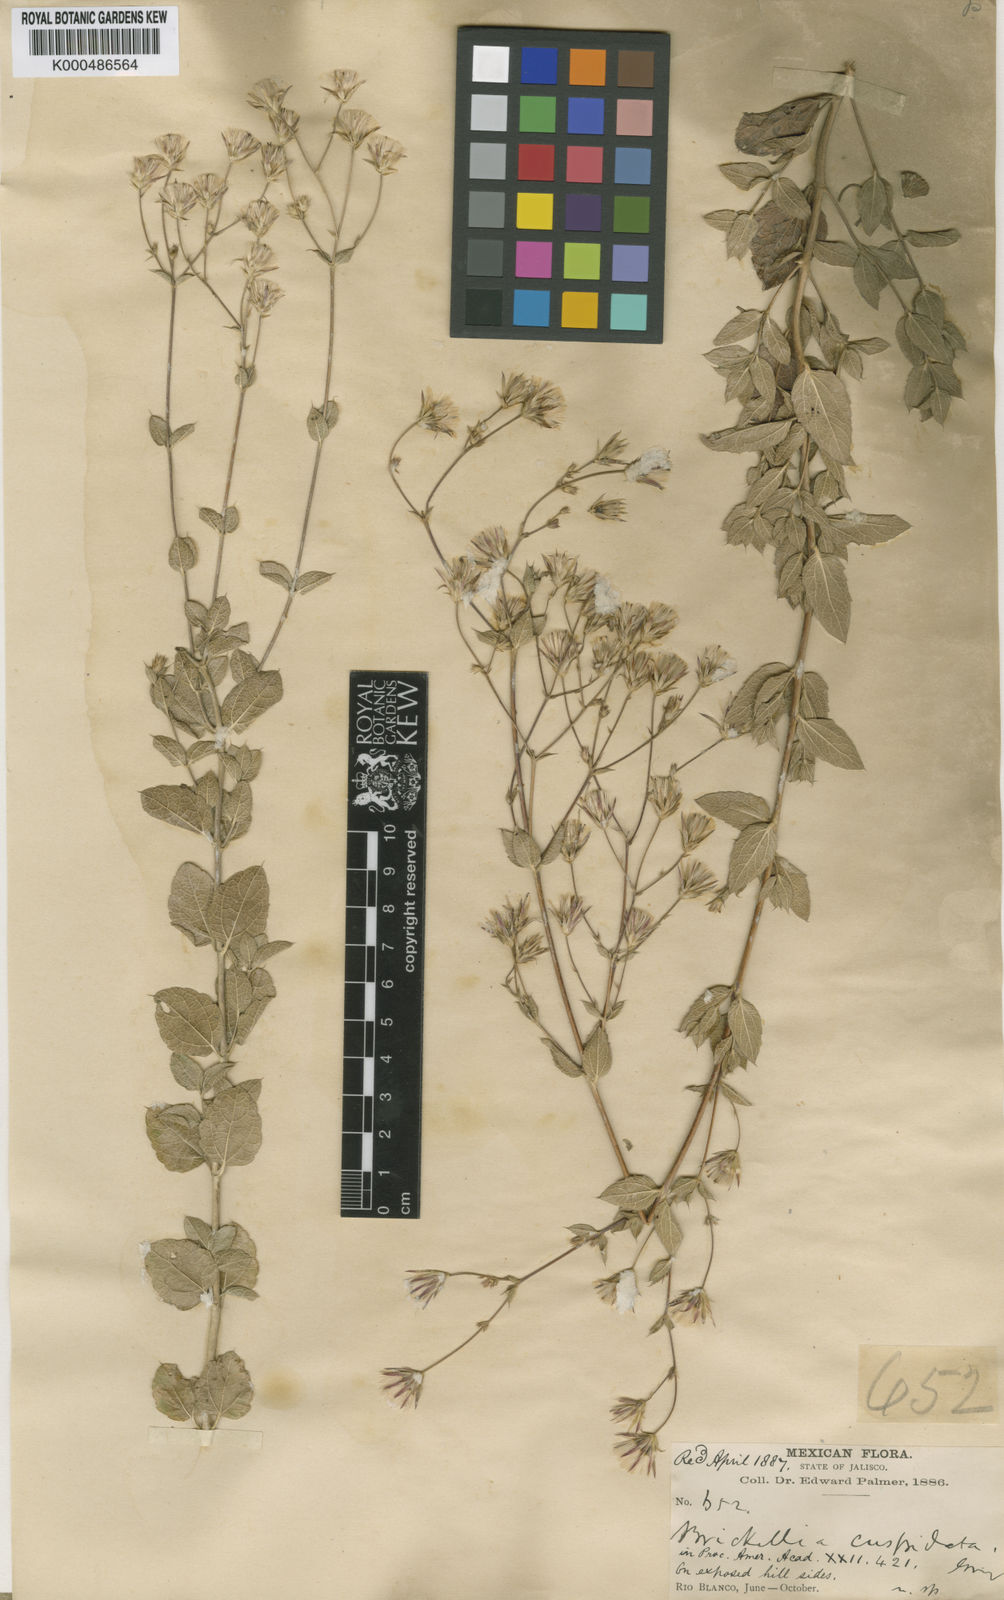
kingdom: Plantae
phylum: Tracheophyta
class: Magnoliopsida
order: Asterales
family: Asteraceae
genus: Brickellia
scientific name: Brickellia cuspidata
